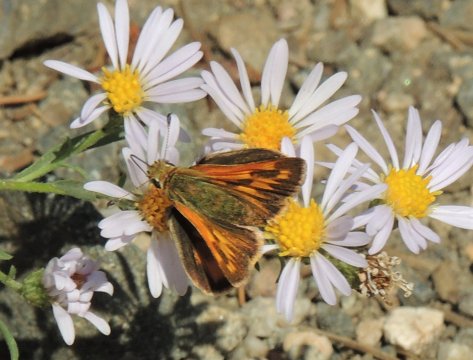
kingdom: Animalia
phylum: Arthropoda
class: Insecta
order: Lepidoptera
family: Hesperiidae
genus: Ochlodes
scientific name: Ochlodes sylvanoides
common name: Woodland Skipper
